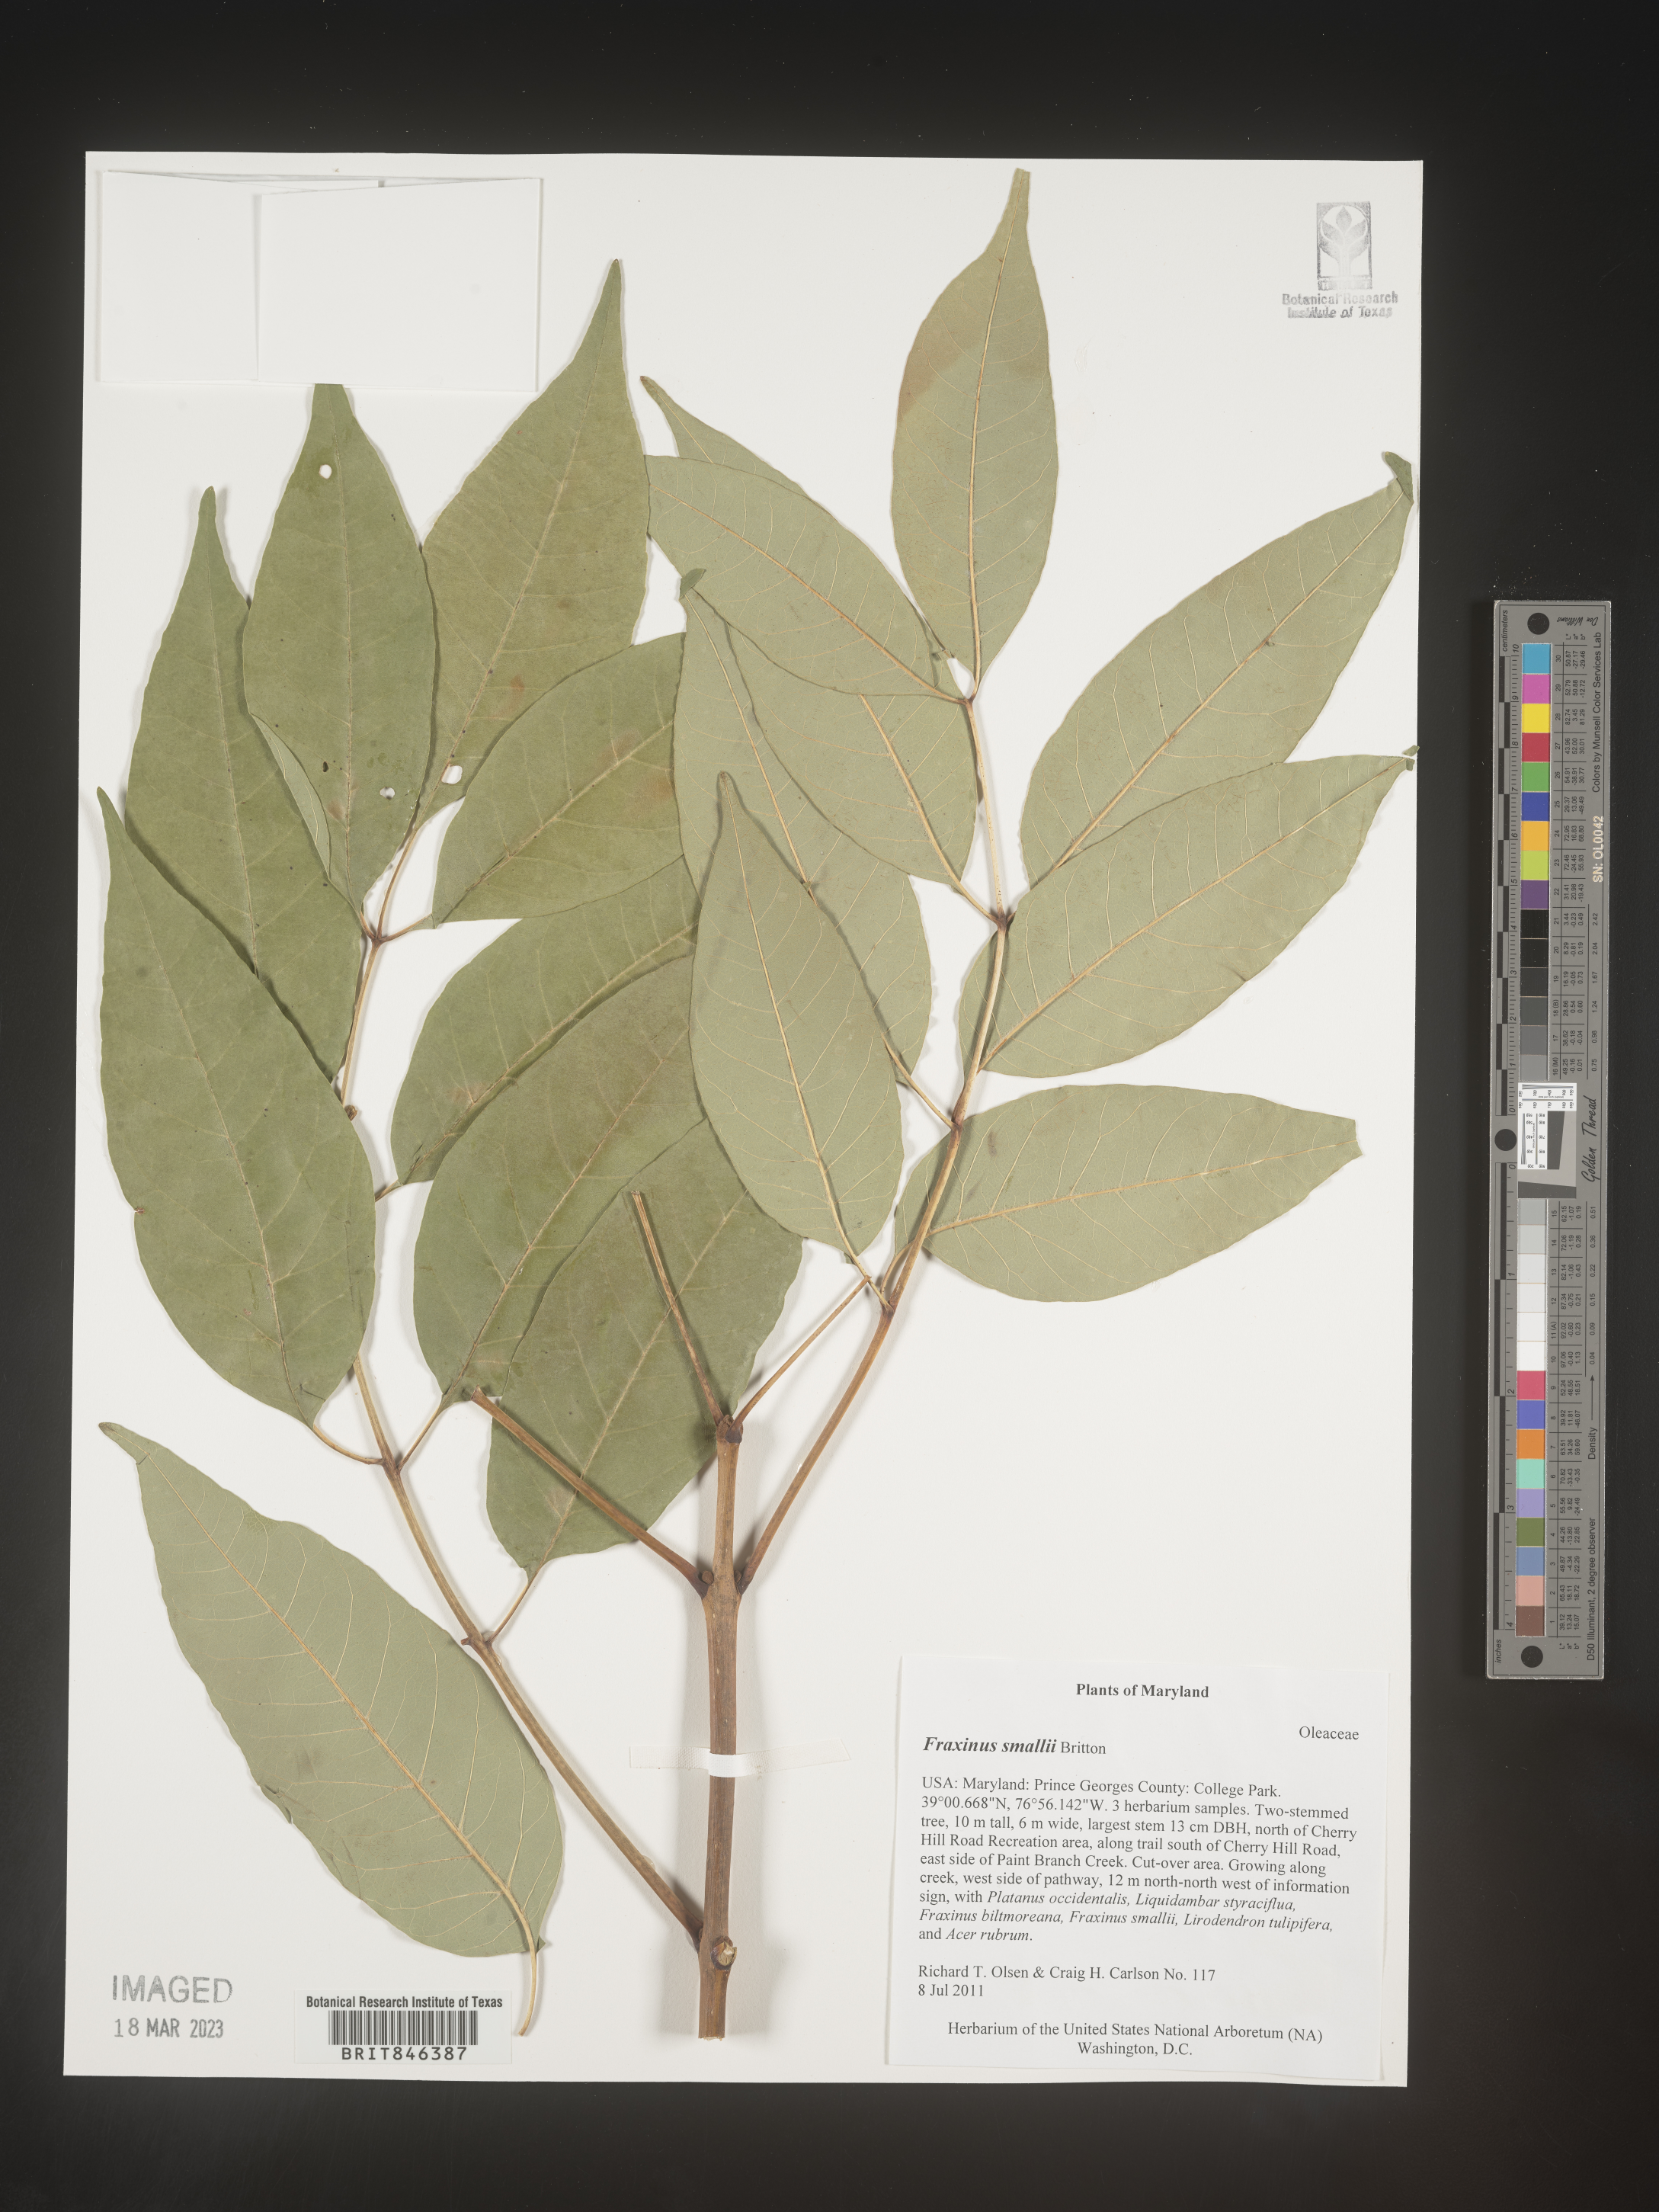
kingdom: Plantae
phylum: Tracheophyta
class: Magnoliopsida
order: Lamiales
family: Oleaceae
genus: Fraxinus
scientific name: Fraxinus pennsylvanica
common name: Green ash
